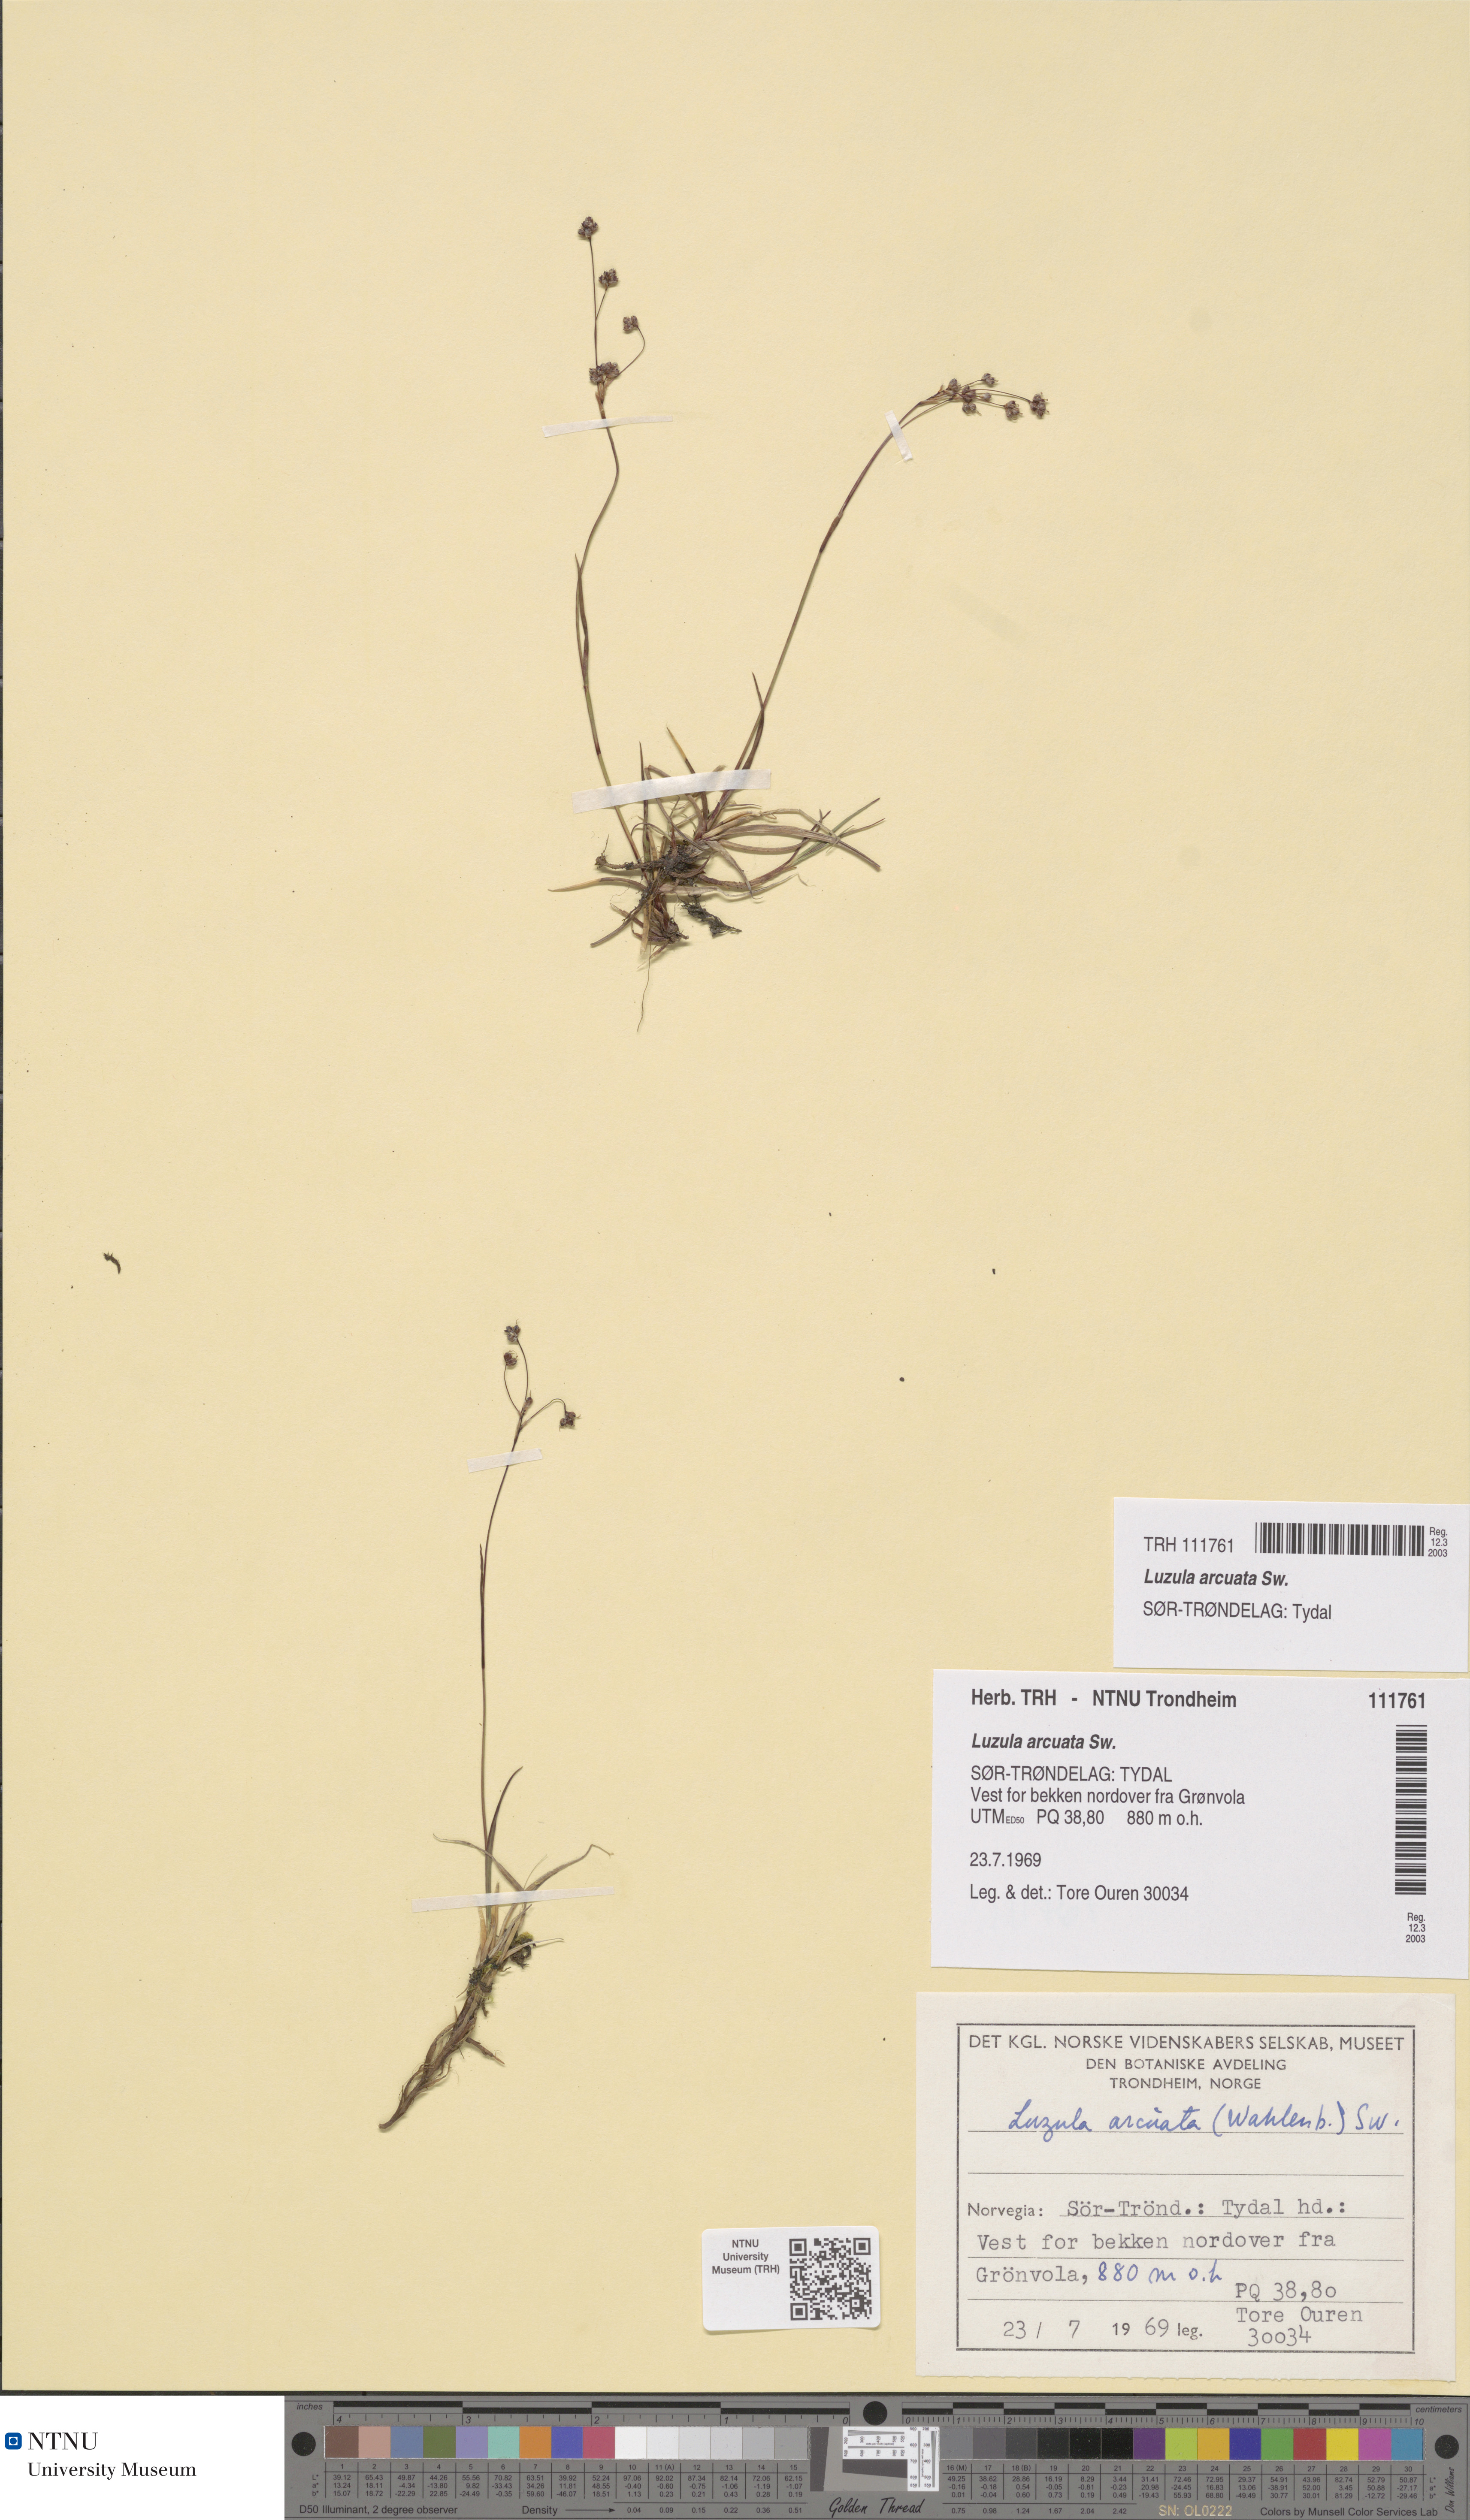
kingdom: Plantae
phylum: Tracheophyta
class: Liliopsida
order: Poales
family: Juncaceae
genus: Luzula
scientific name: Luzula arcuata
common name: Curved wood-rush
